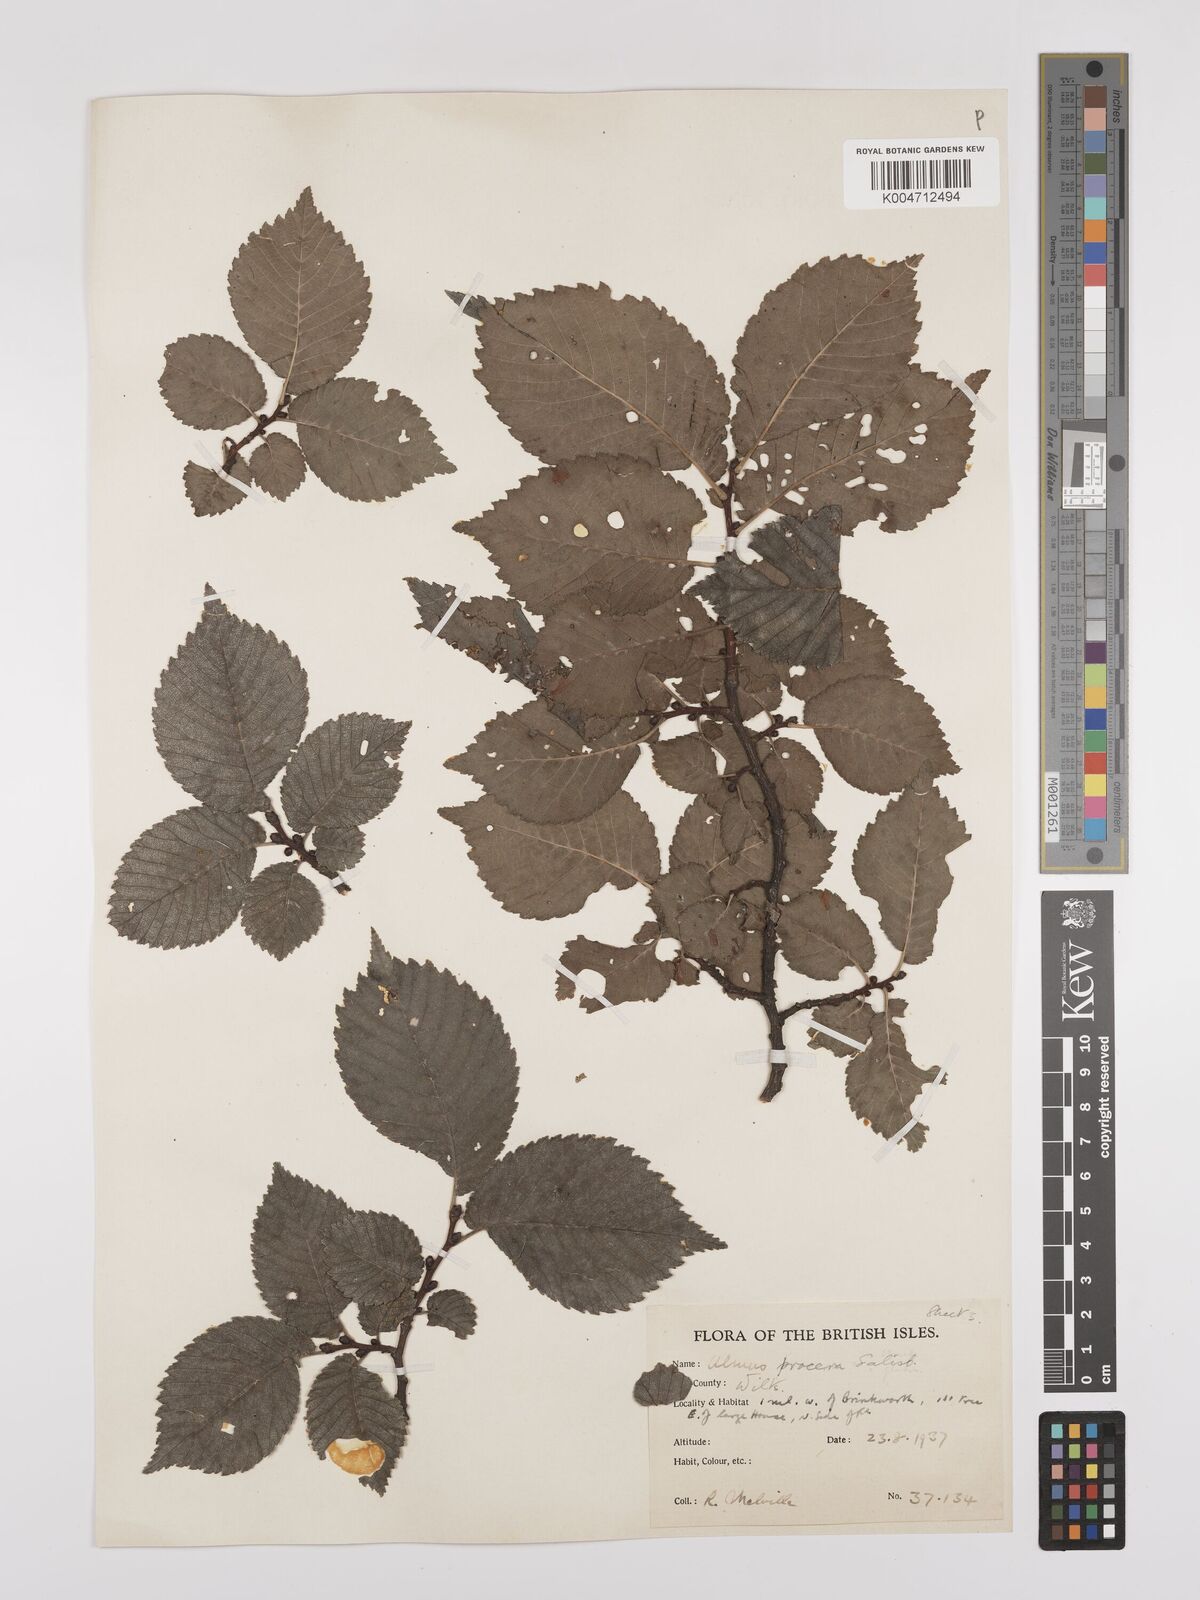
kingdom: Plantae
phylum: Tracheophyta
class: Magnoliopsida
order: Rosales
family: Ulmaceae
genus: Ulmus
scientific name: Ulmus minor
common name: Small-leaved elm
